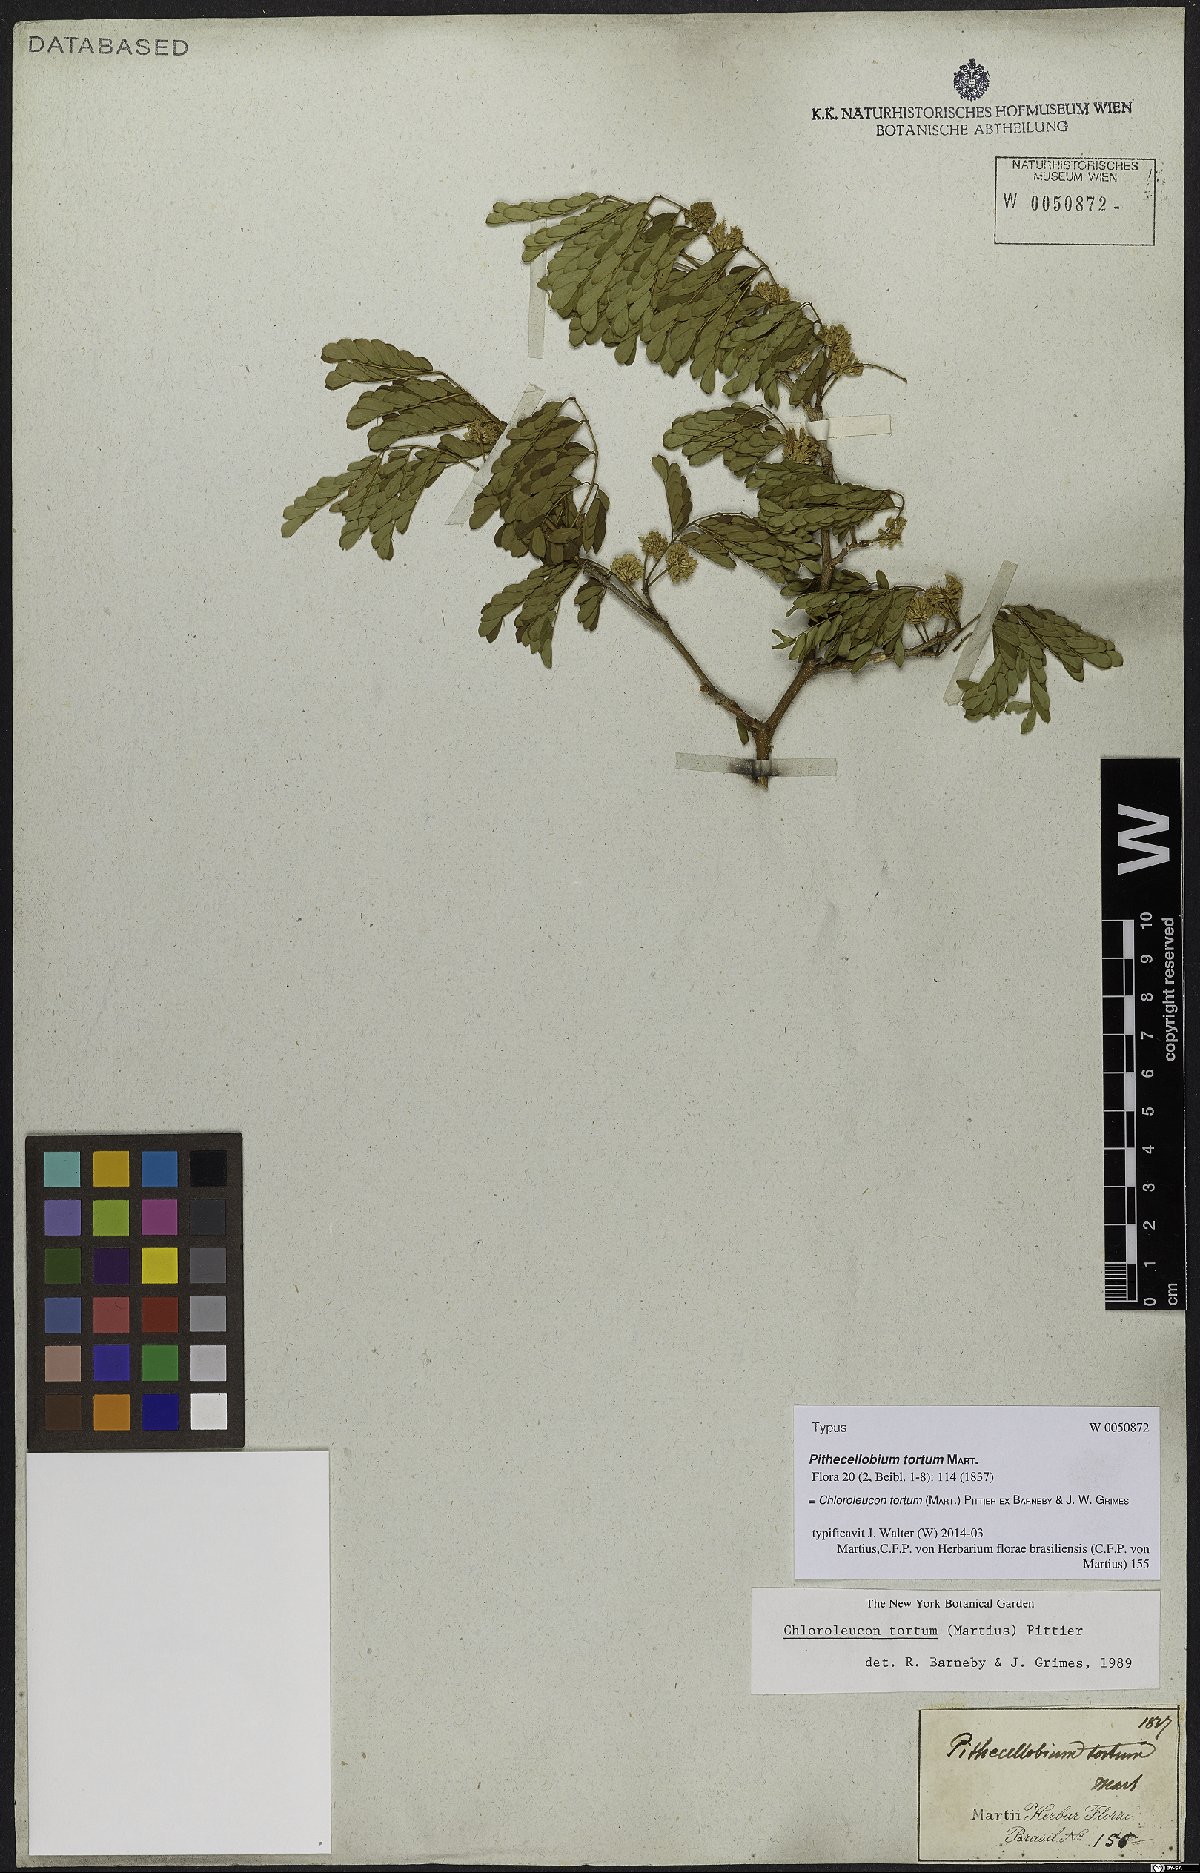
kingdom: Plantae
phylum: Tracheophyta
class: Magnoliopsida
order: Fabales
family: Fabaceae
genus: Chloroleucon
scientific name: Chloroleucon tortum
